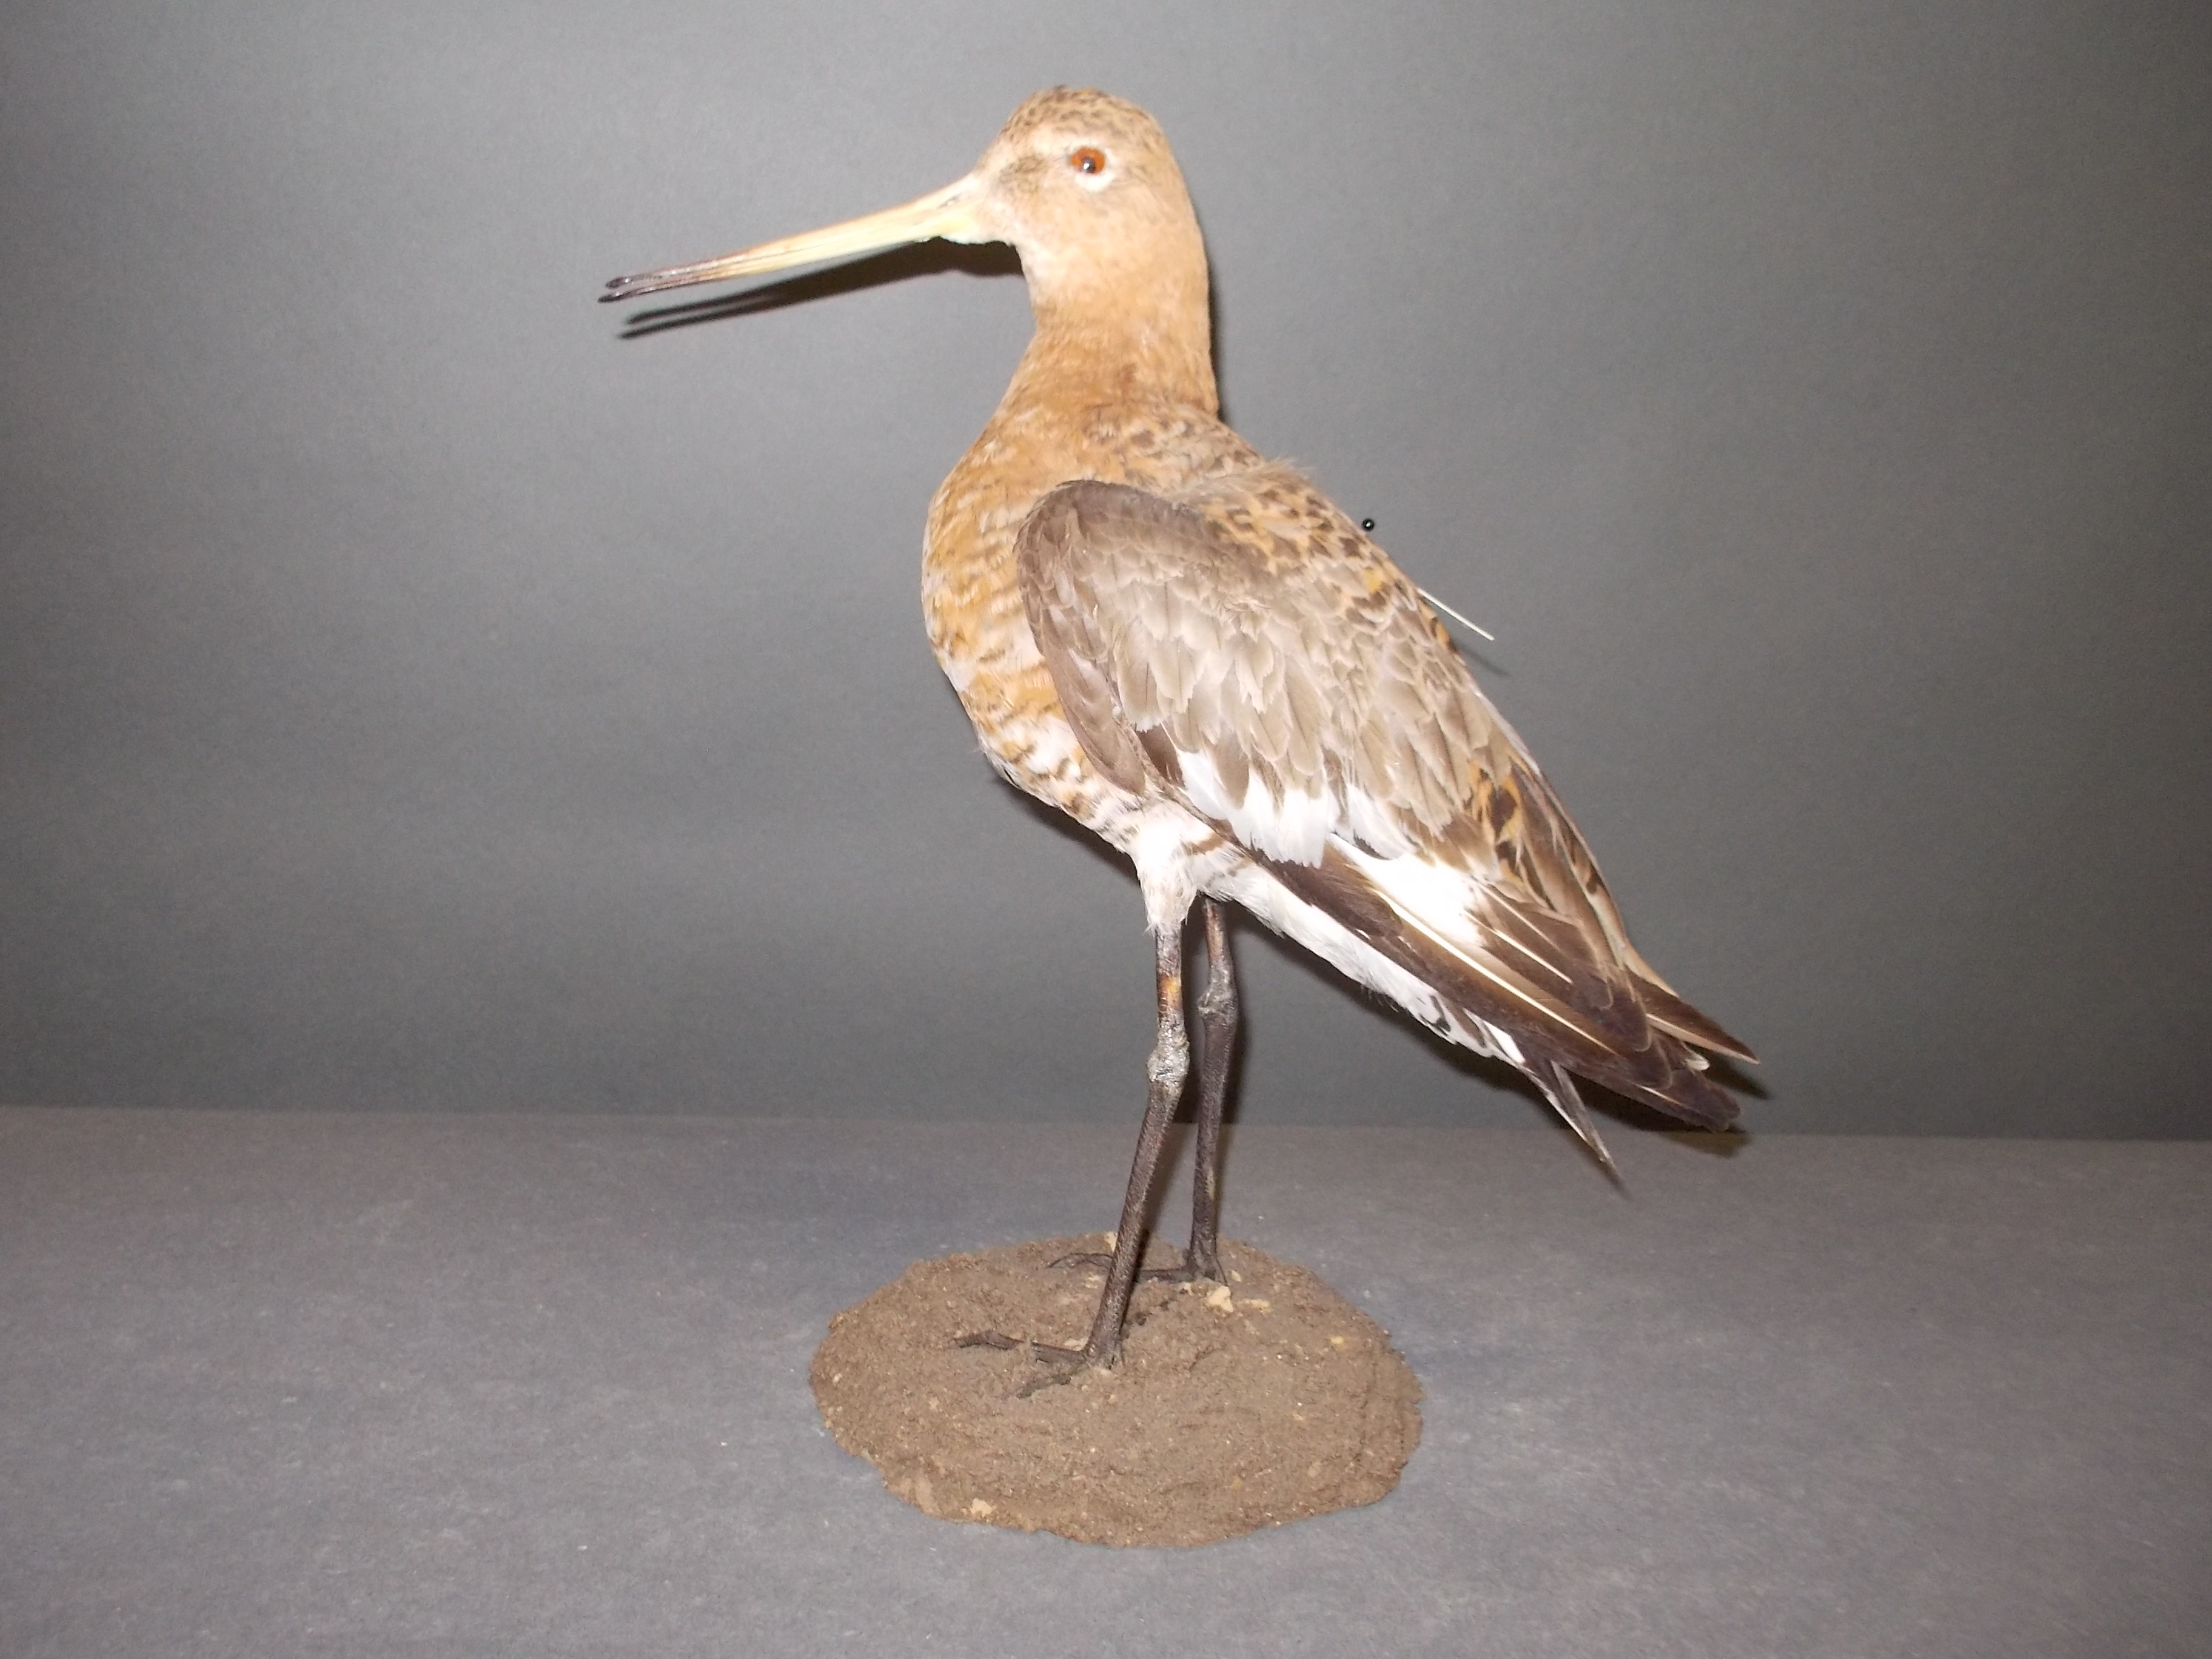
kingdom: Animalia
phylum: Chordata
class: Aves
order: Charadriiformes
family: Scolopacidae
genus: Limosa
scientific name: Limosa limosa
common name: Black-tailed godwit
